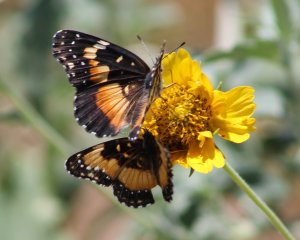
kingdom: Animalia
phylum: Arthropoda
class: Insecta
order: Lepidoptera
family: Nymphalidae
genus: Chlosyne
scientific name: Chlosyne lacinia
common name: Bordered Patch
